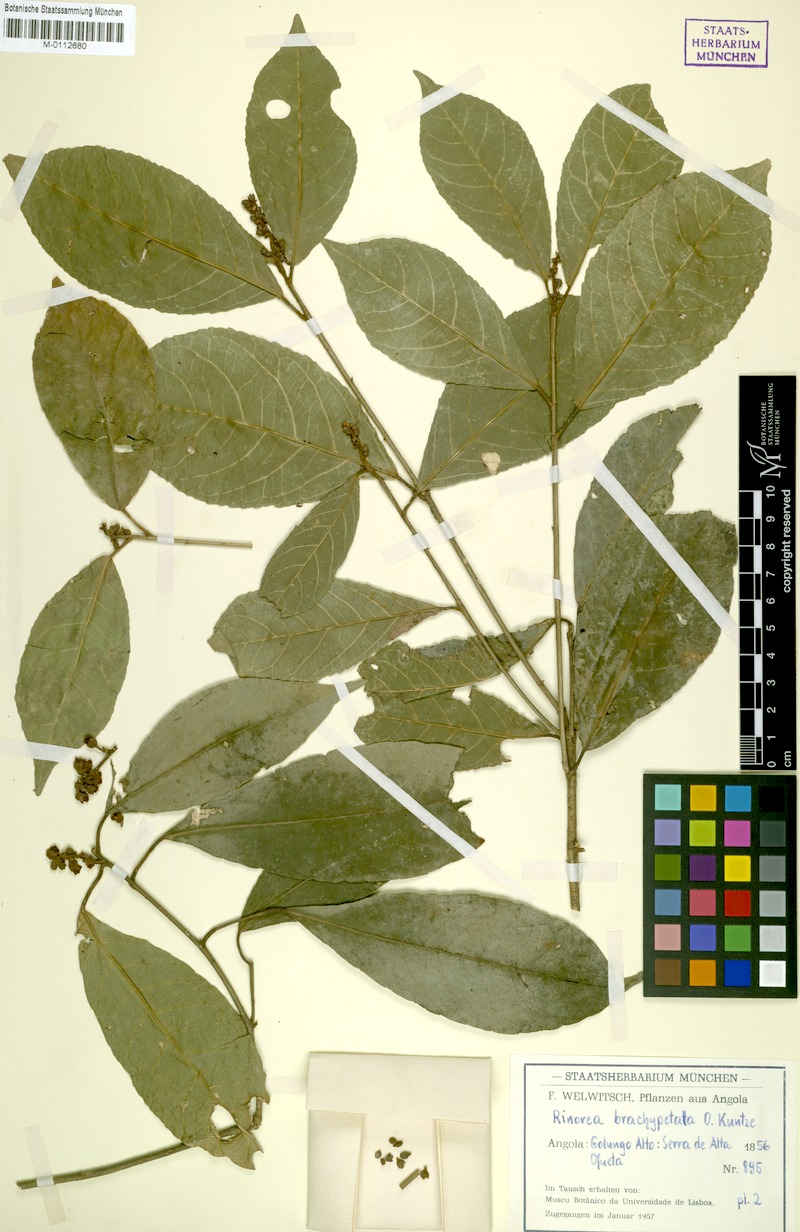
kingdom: Plantae
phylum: Tracheophyta
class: Magnoliopsida
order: Malpighiales
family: Violaceae
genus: Rinorea
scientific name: Rinorea brachypetala
